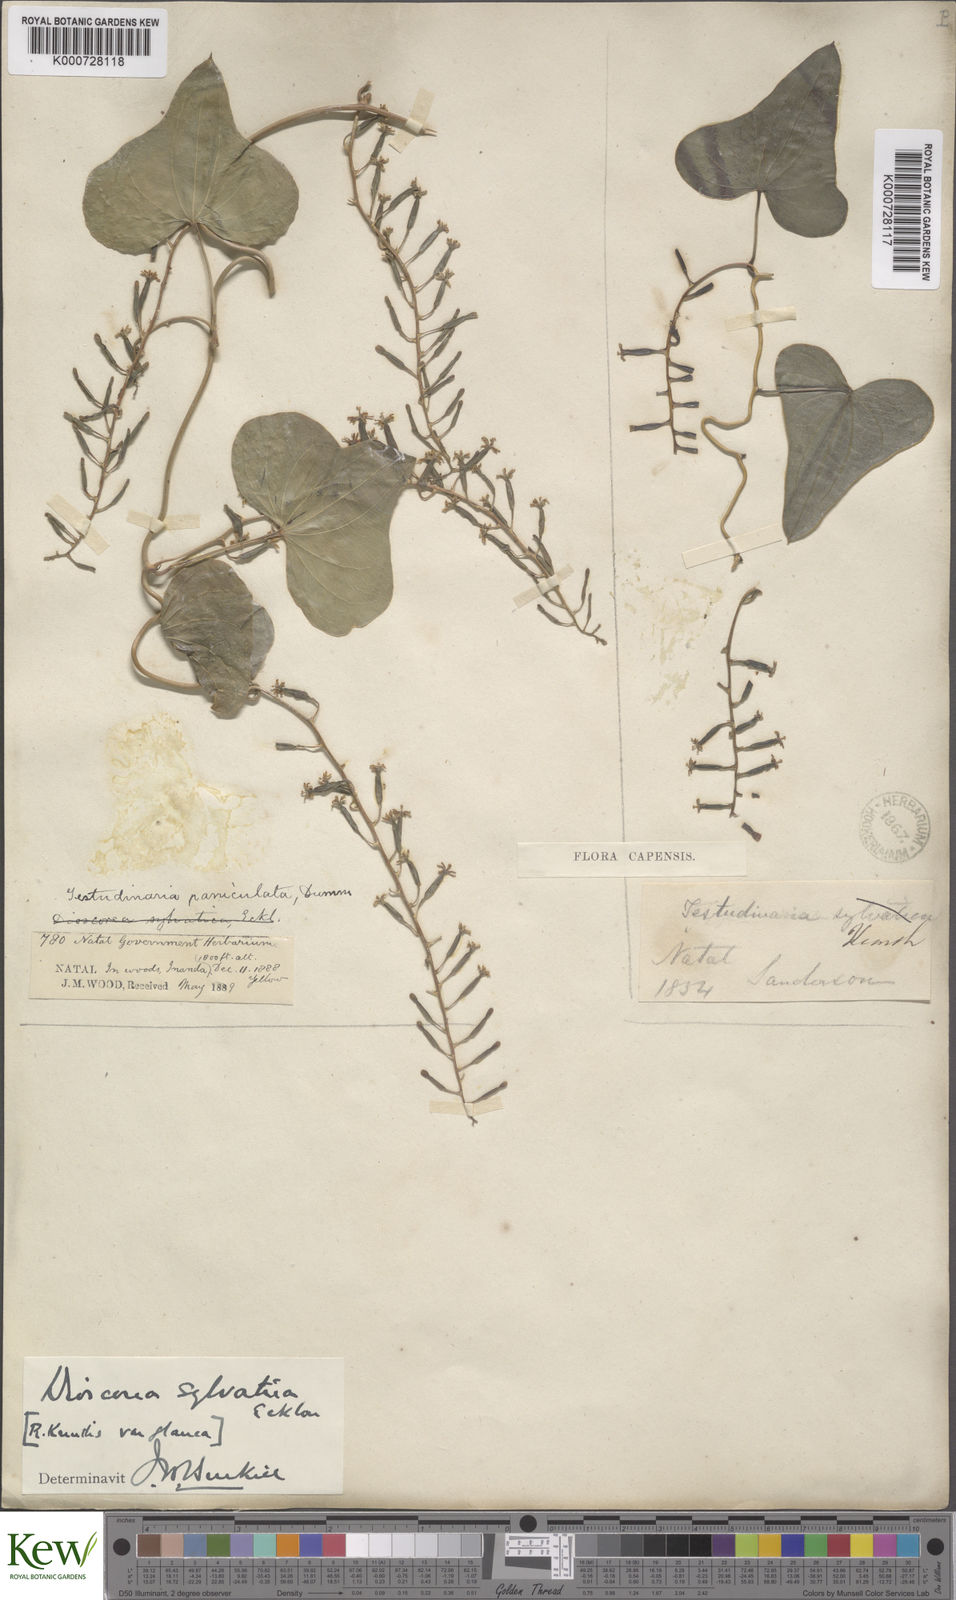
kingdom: Plantae
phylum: Tracheophyta
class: Liliopsida
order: Dioscoreales
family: Dioscoreaceae
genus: Dioscorea
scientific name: Dioscorea sylvatica
